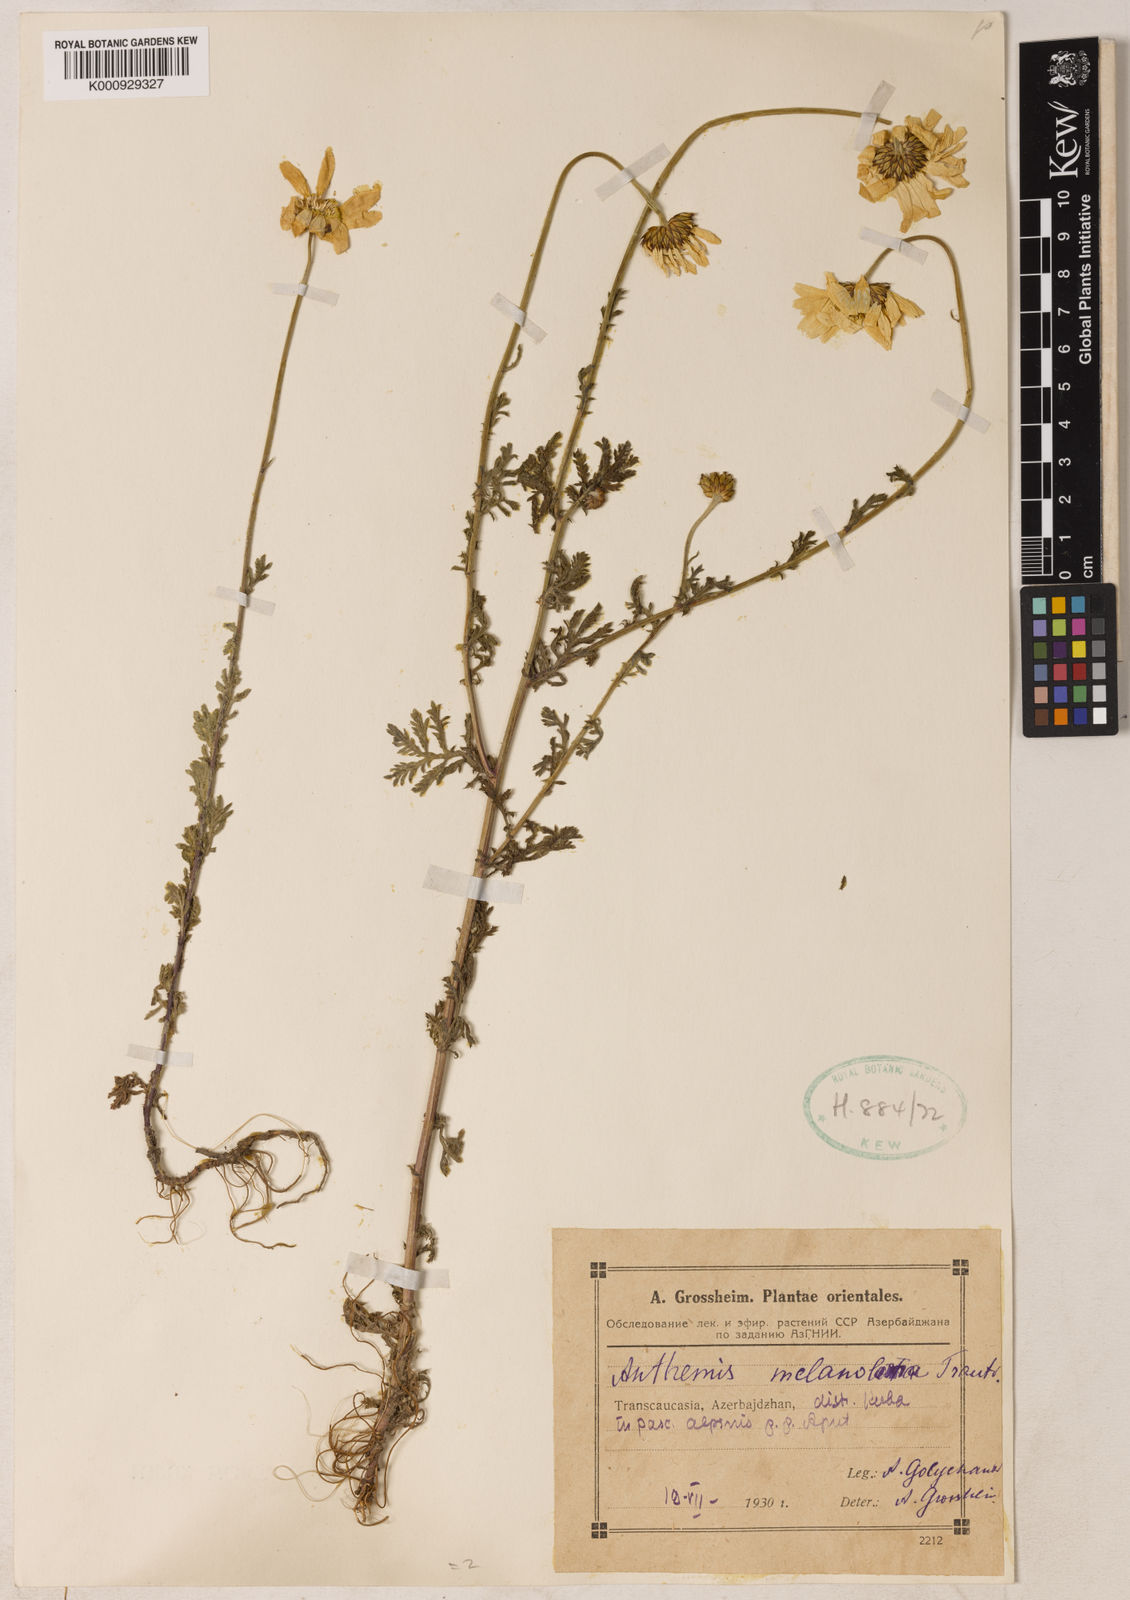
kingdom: Plantae
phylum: Tracheophyta
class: Magnoliopsida
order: Asterales
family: Asteraceae
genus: Cota
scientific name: Cota melanoloma
